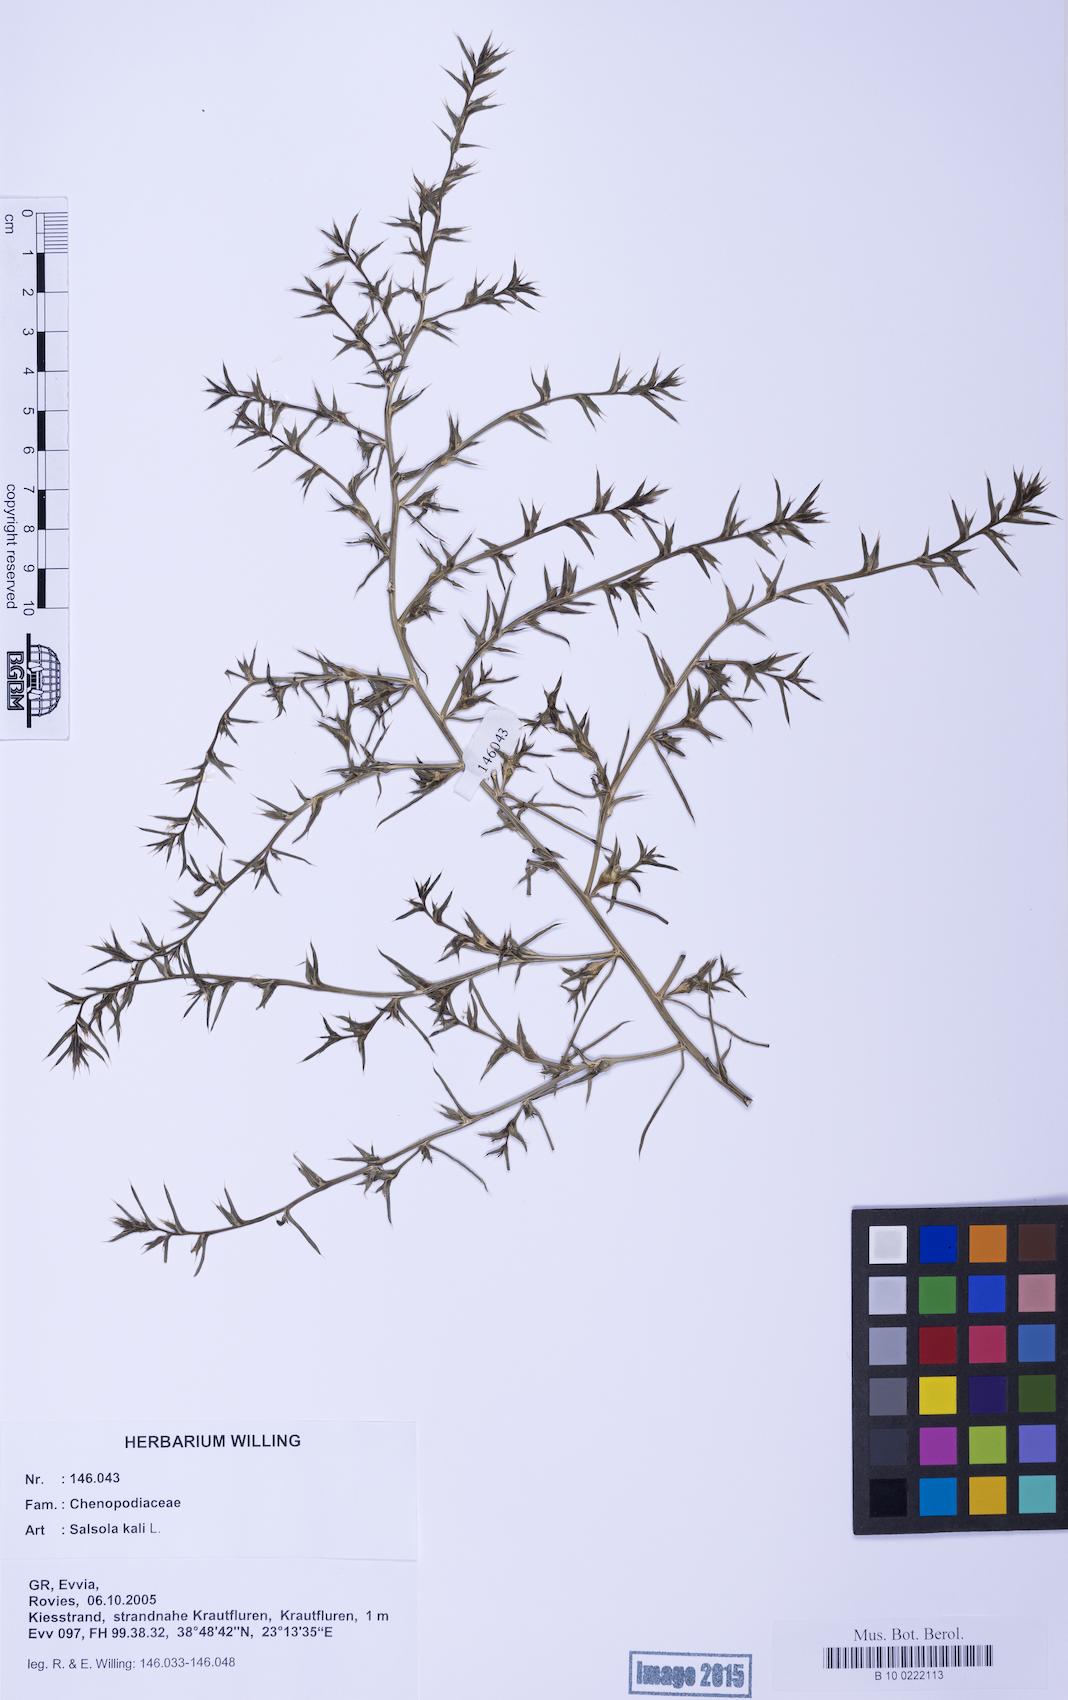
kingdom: Plantae
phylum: Tracheophyta
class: Magnoliopsida
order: Caryophyllales
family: Amaranthaceae
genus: Salsola
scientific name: Salsola kali
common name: Saltwort
